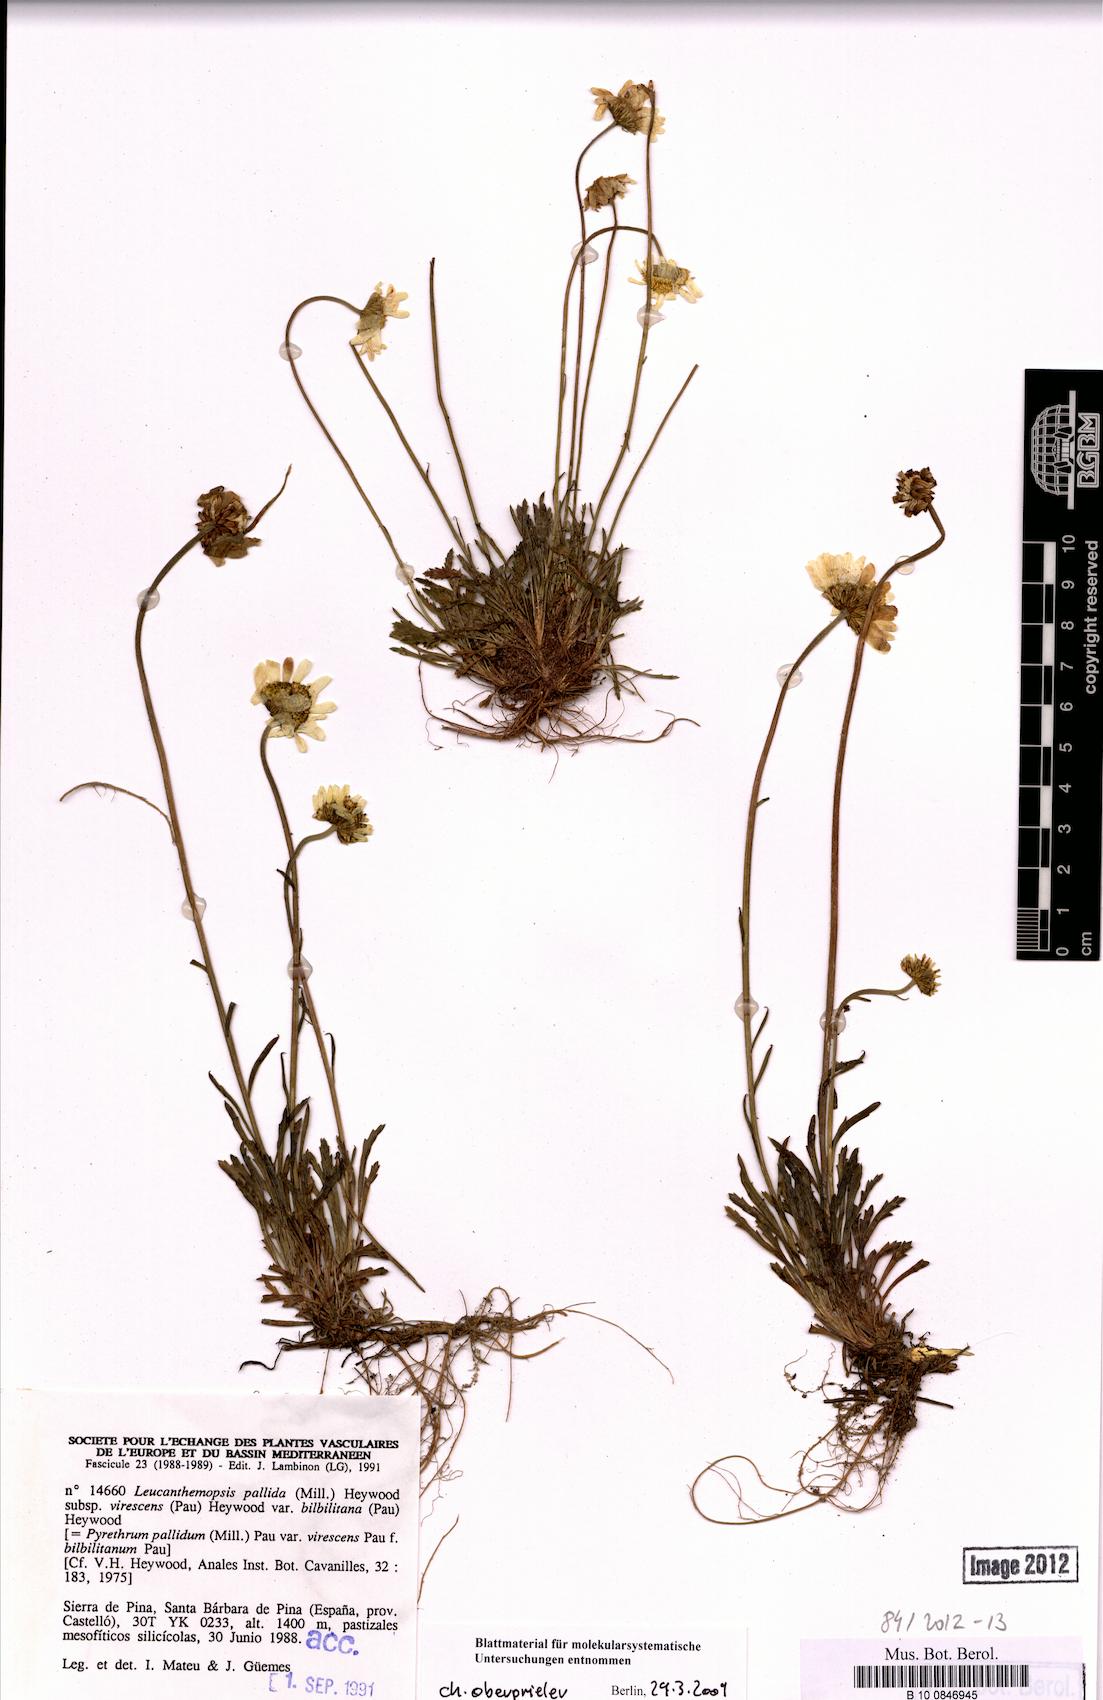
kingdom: Plantae
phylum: Tracheophyta
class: Magnoliopsida
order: Asterales
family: Asteraceae
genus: Leucanthemopsis
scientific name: Leucanthemopsis pallida
